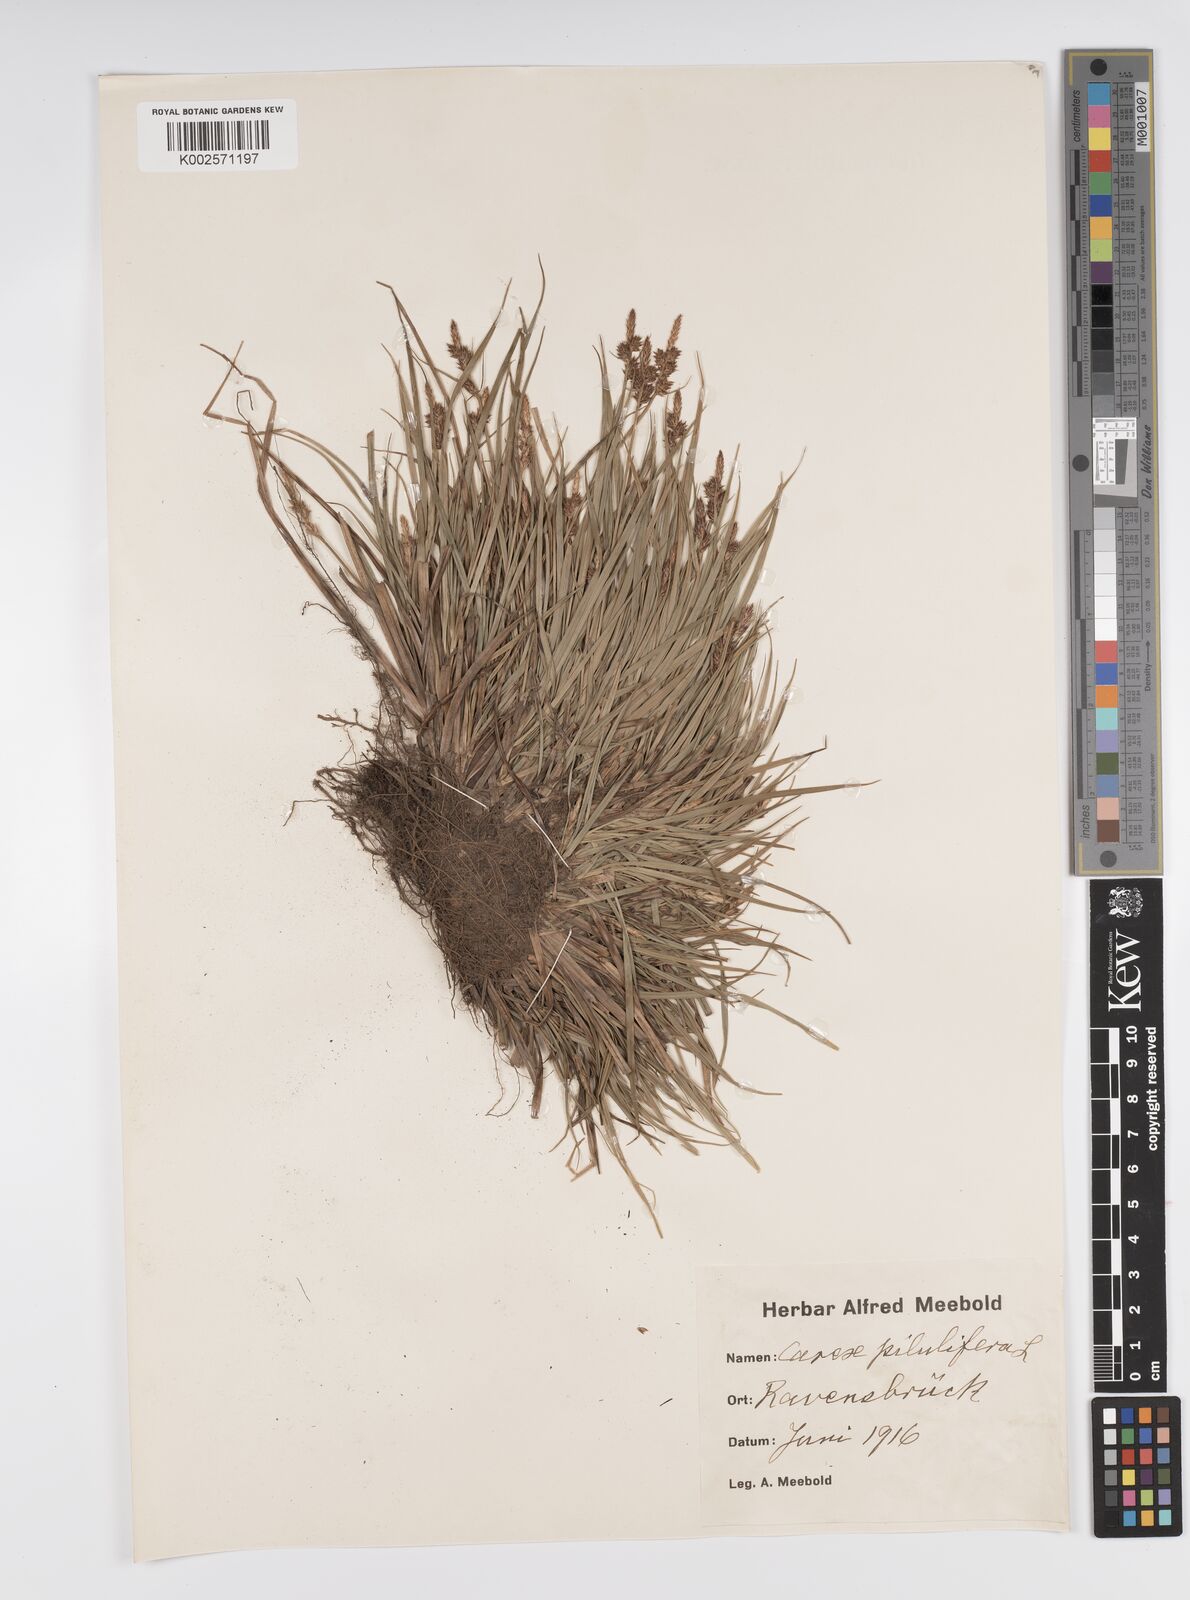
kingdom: Plantae
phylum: Tracheophyta
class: Liliopsida
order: Poales
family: Cyperaceae
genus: Carex
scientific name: Carex pilulifera
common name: Pill sedge
